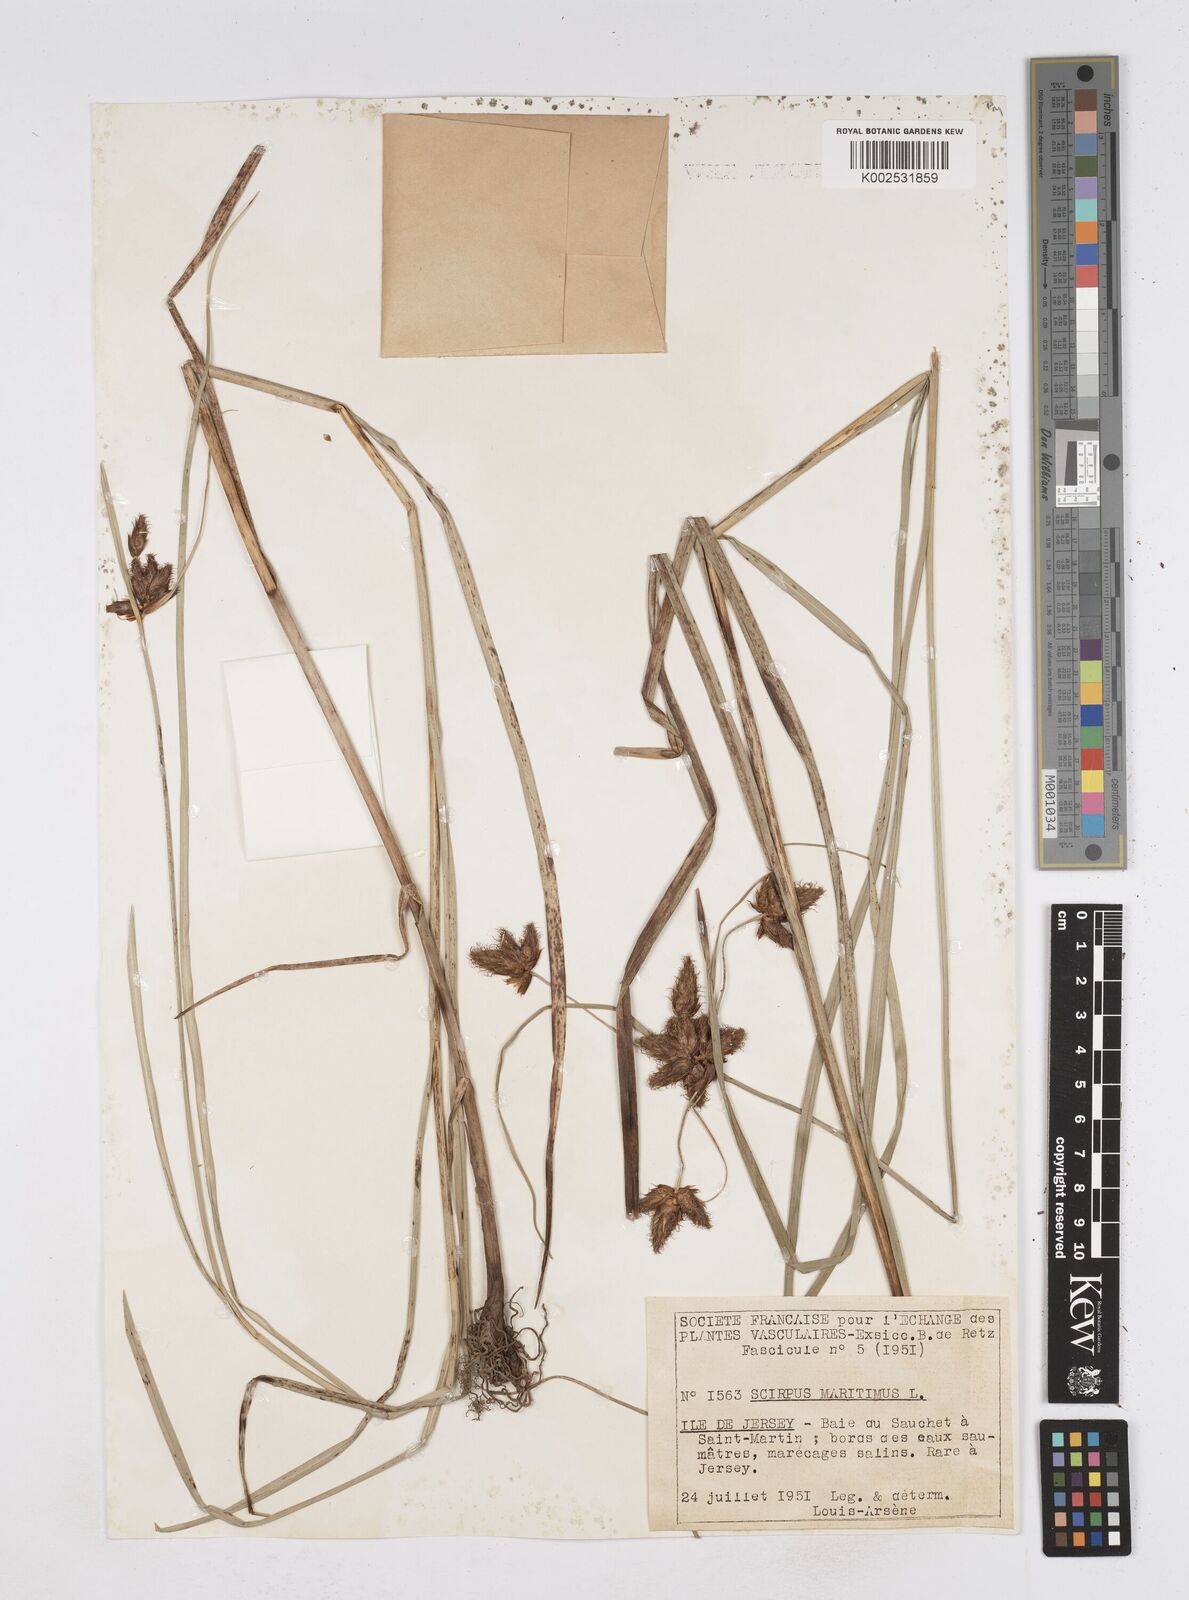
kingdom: Plantae
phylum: Tracheophyta
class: Liliopsida
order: Poales
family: Cyperaceae
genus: Bolboschoenus
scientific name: Bolboschoenus maritimus
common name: Sea club-rush
